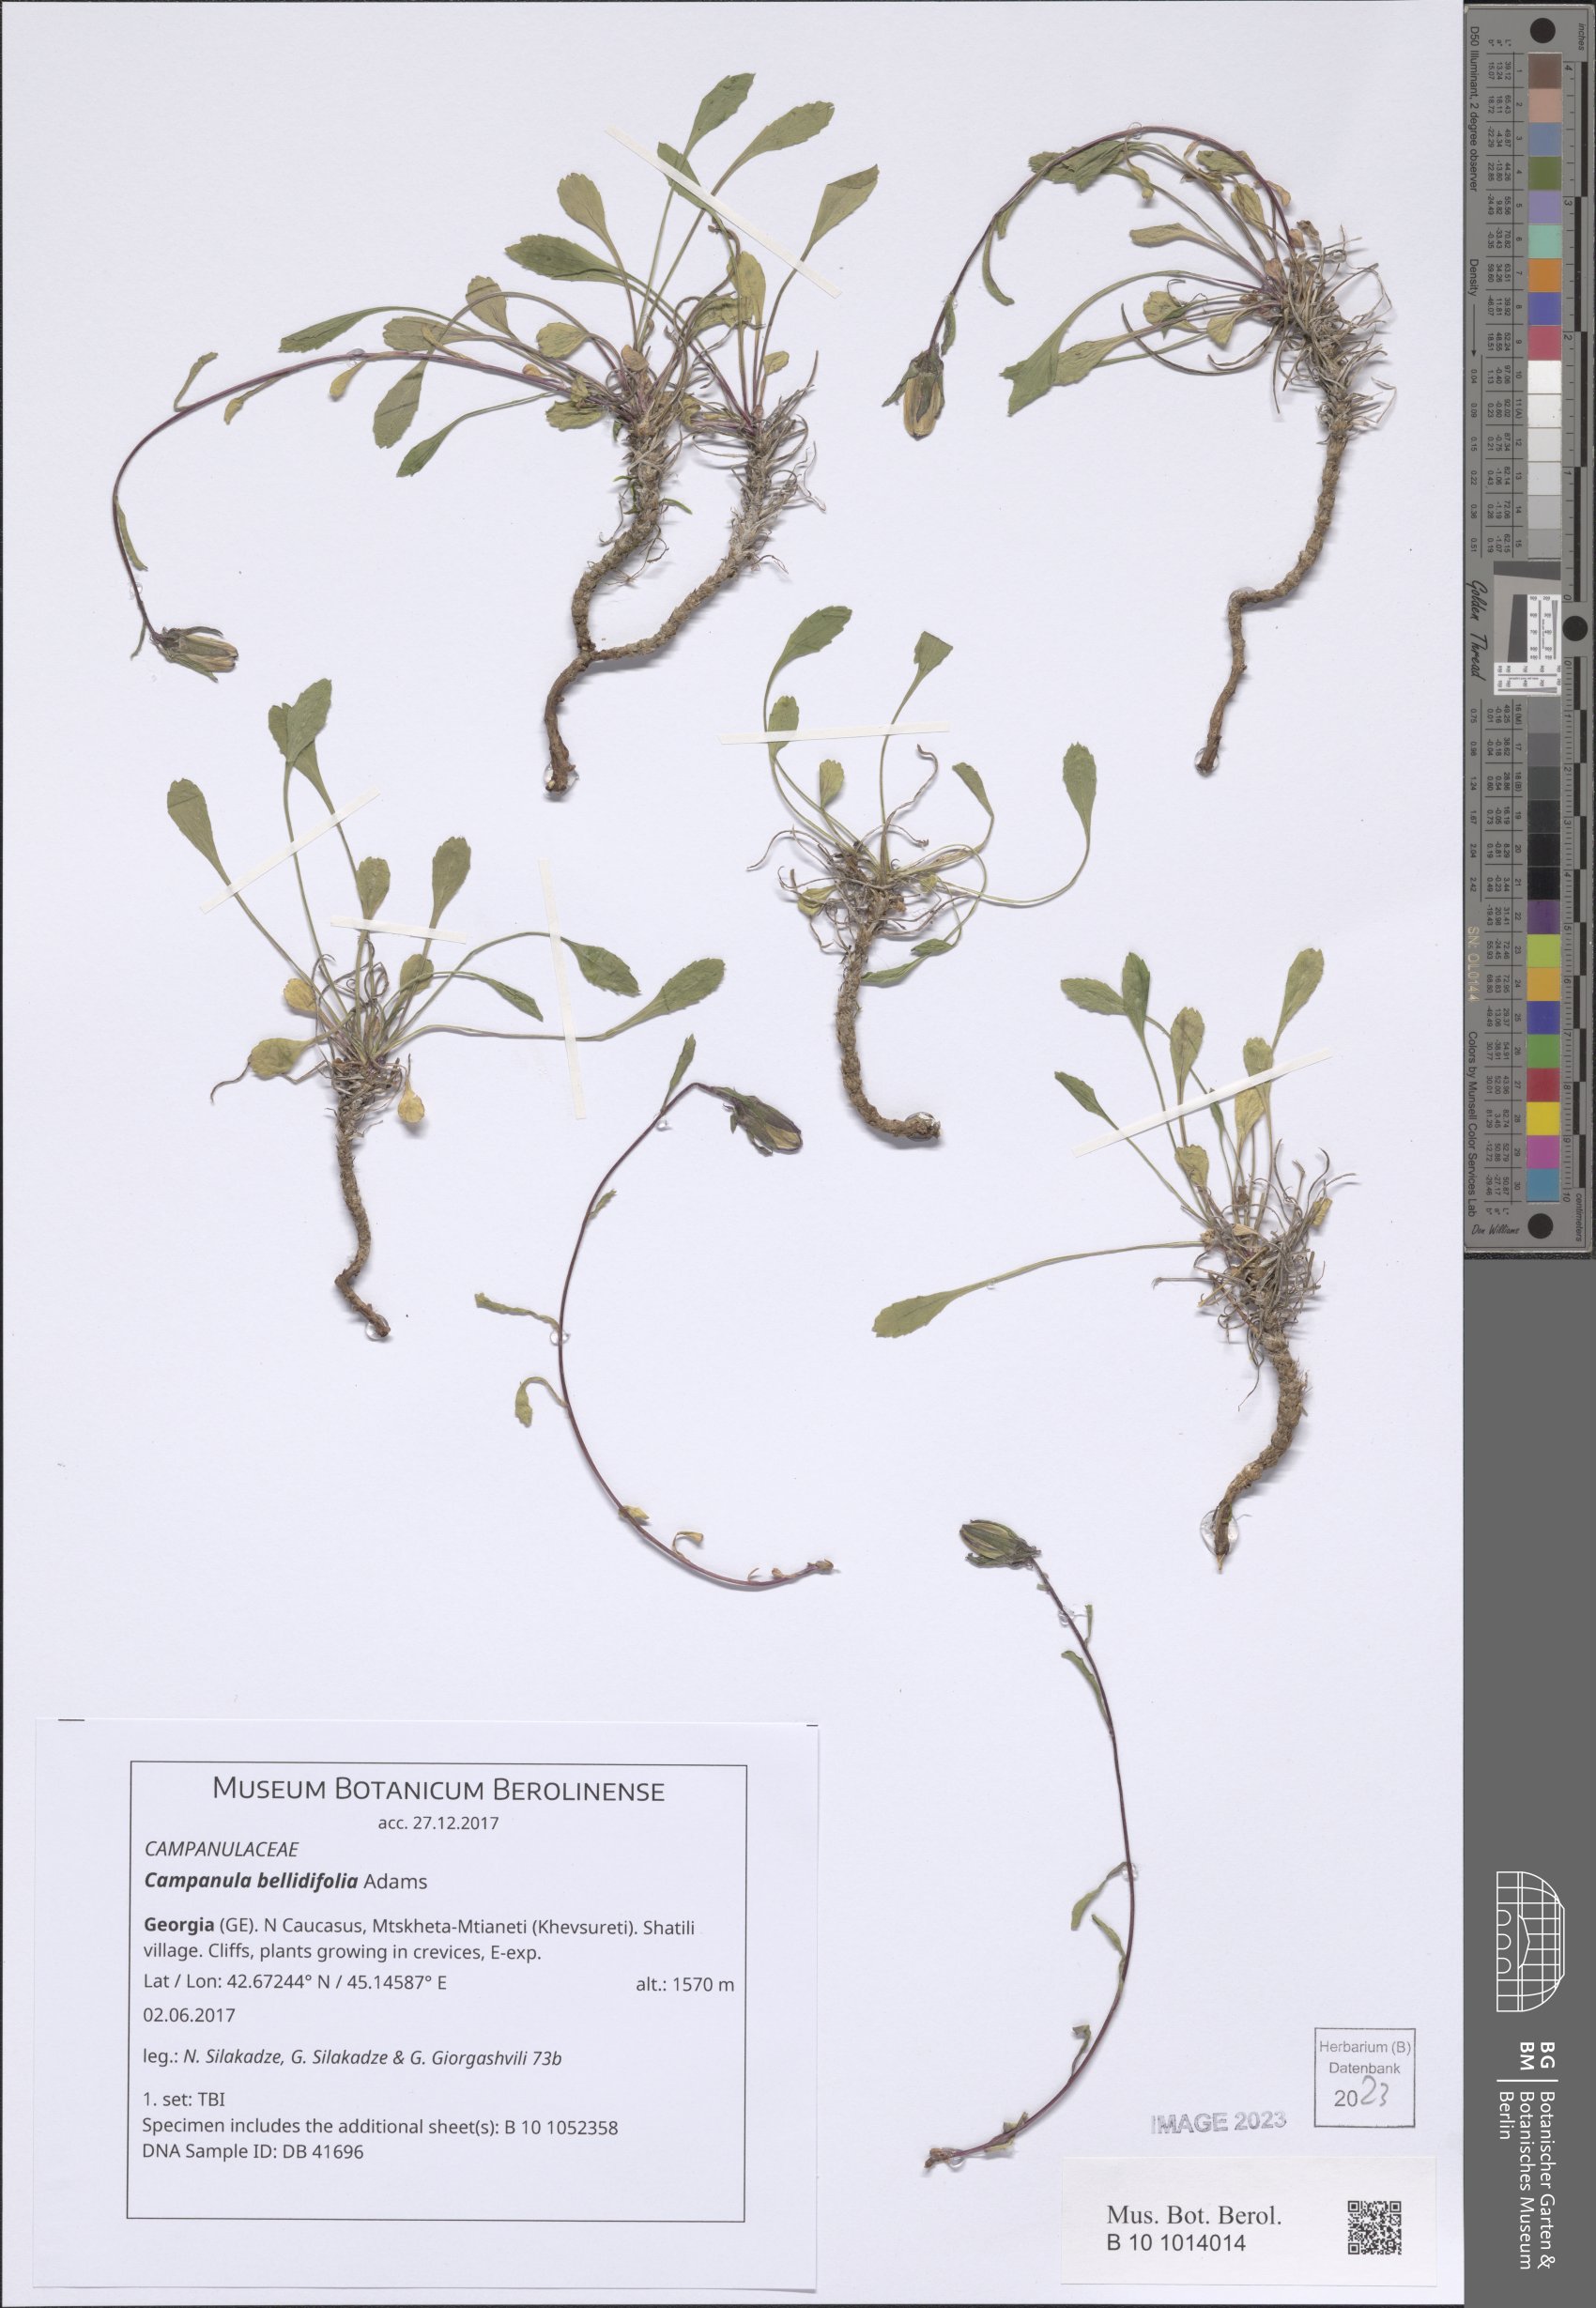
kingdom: Plantae
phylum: Tracheophyta
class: Magnoliopsida
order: Asterales
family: Campanulaceae
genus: Campanula
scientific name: Campanula bellidifolia
